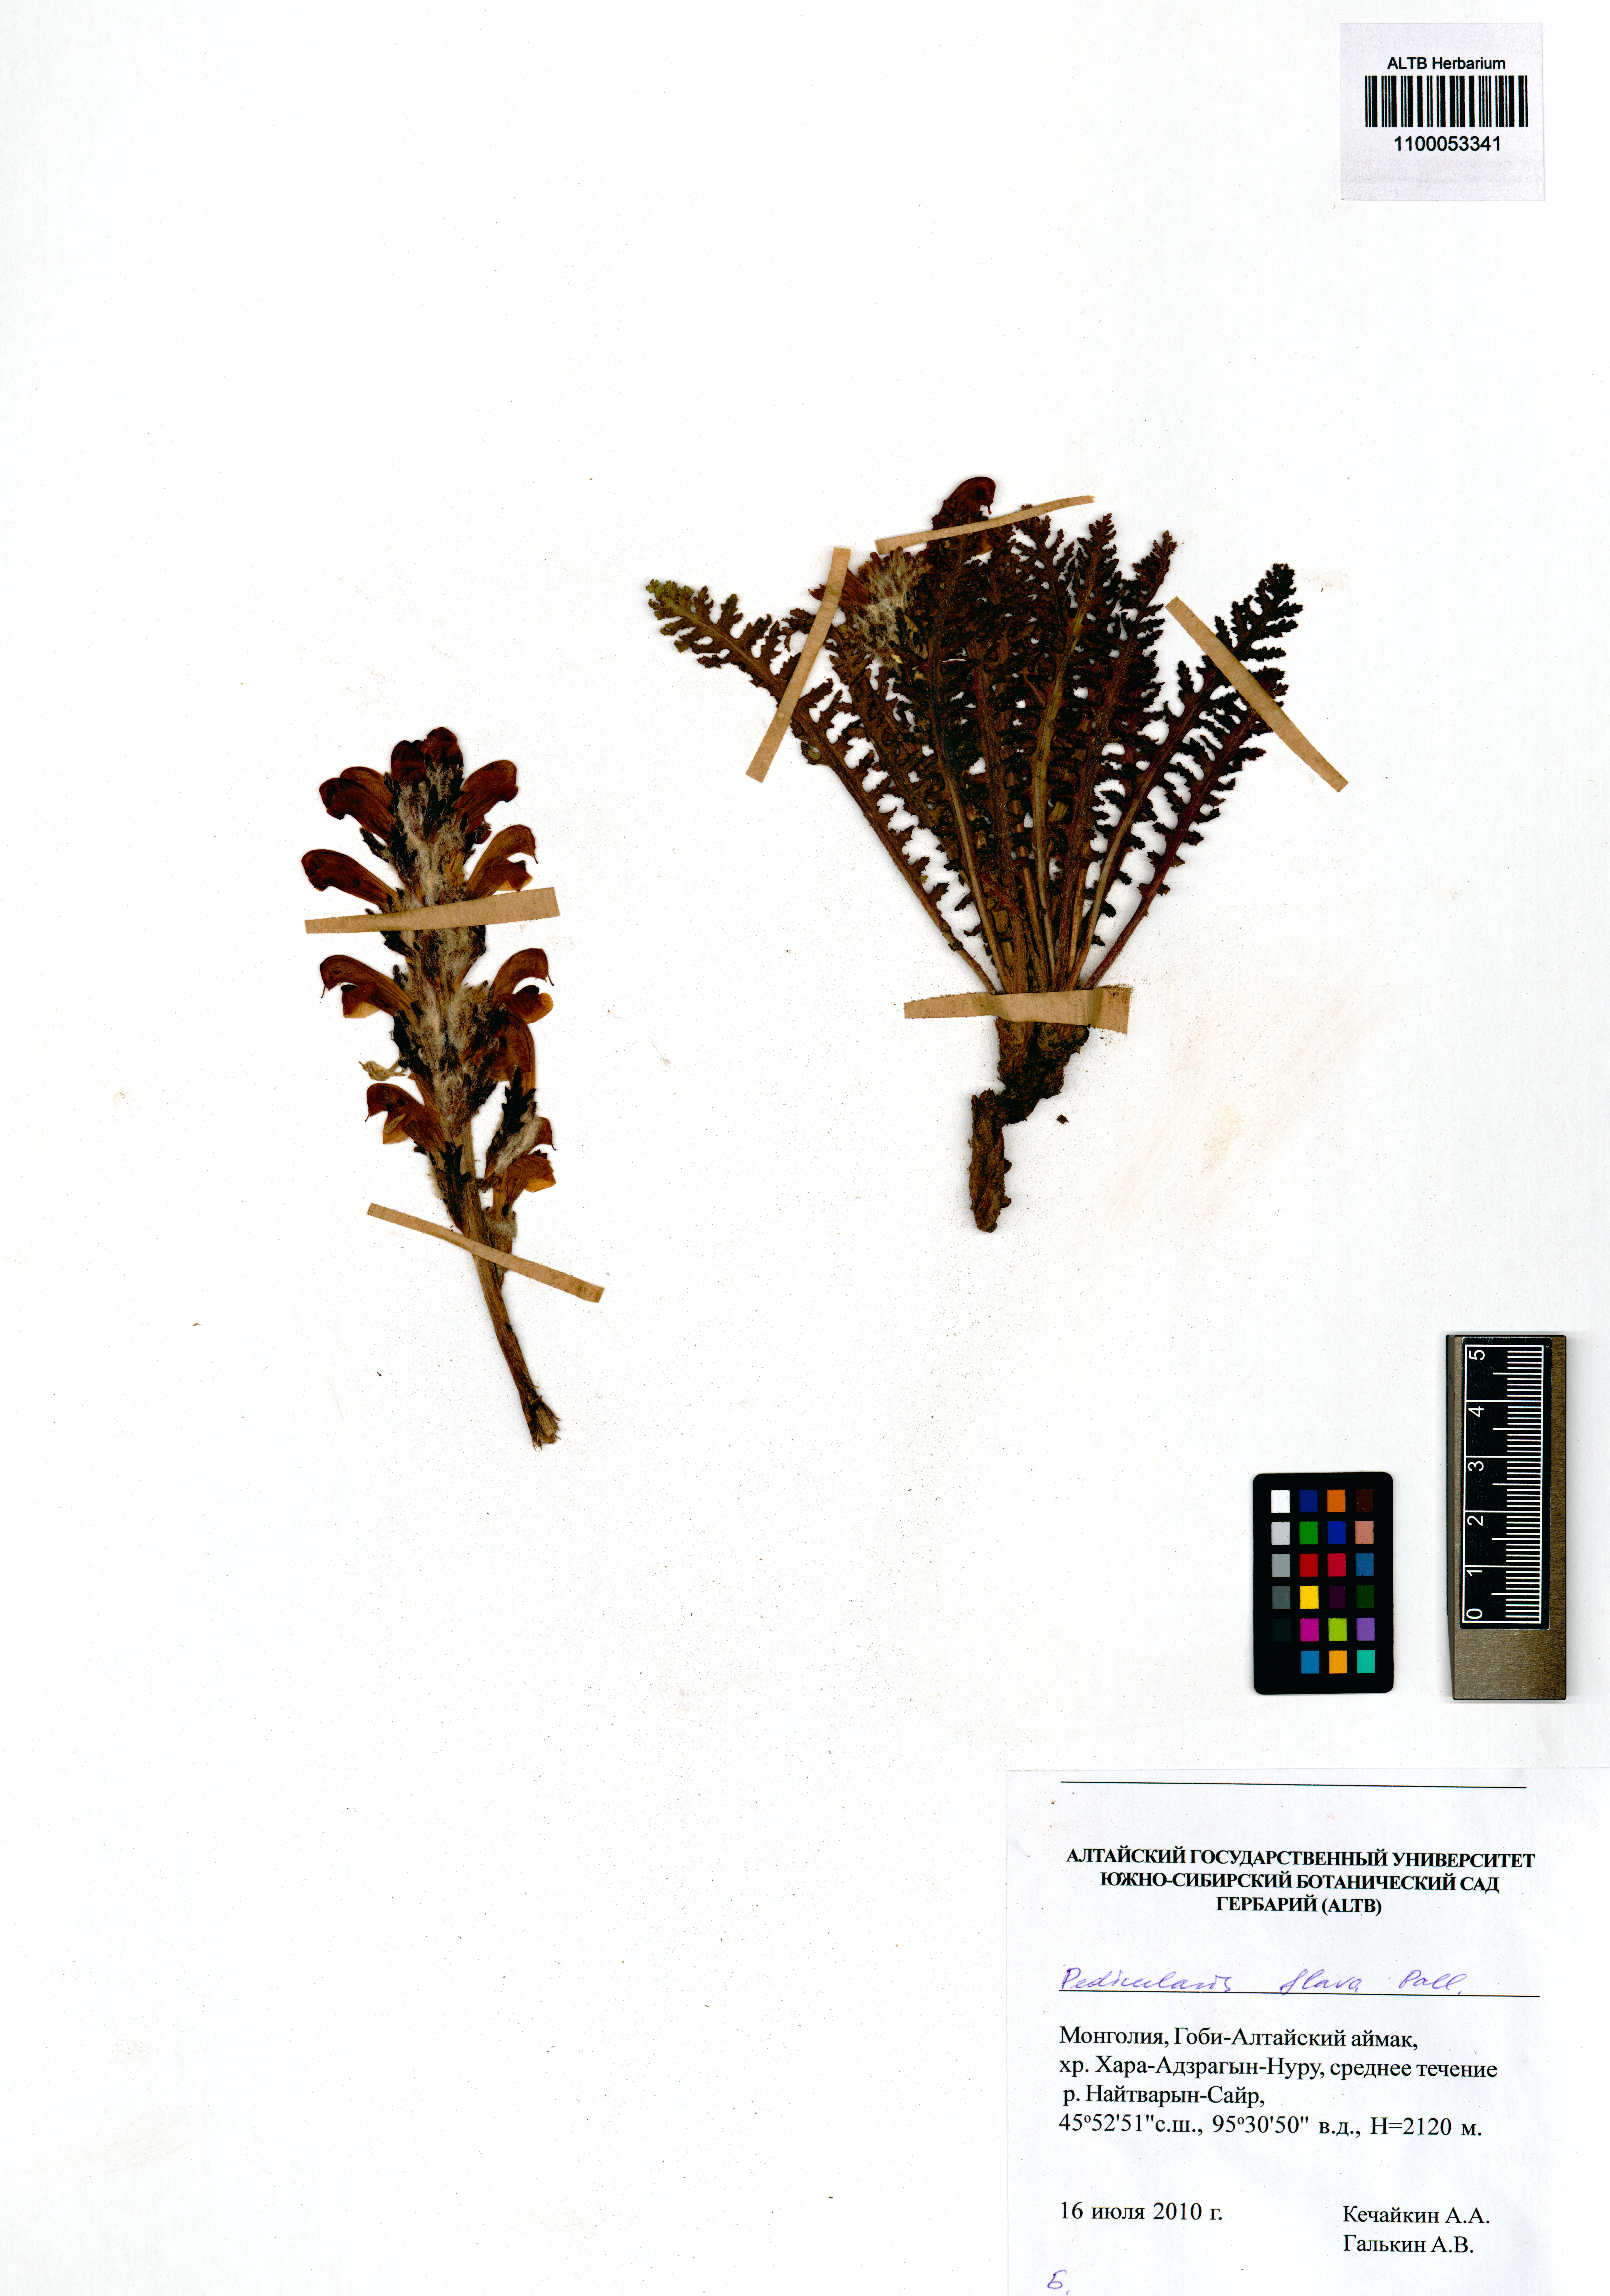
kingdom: Plantae
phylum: Tracheophyta
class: Magnoliopsida
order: Lamiales
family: Orobanchaceae
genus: Pedicularis
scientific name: Pedicularis flava
